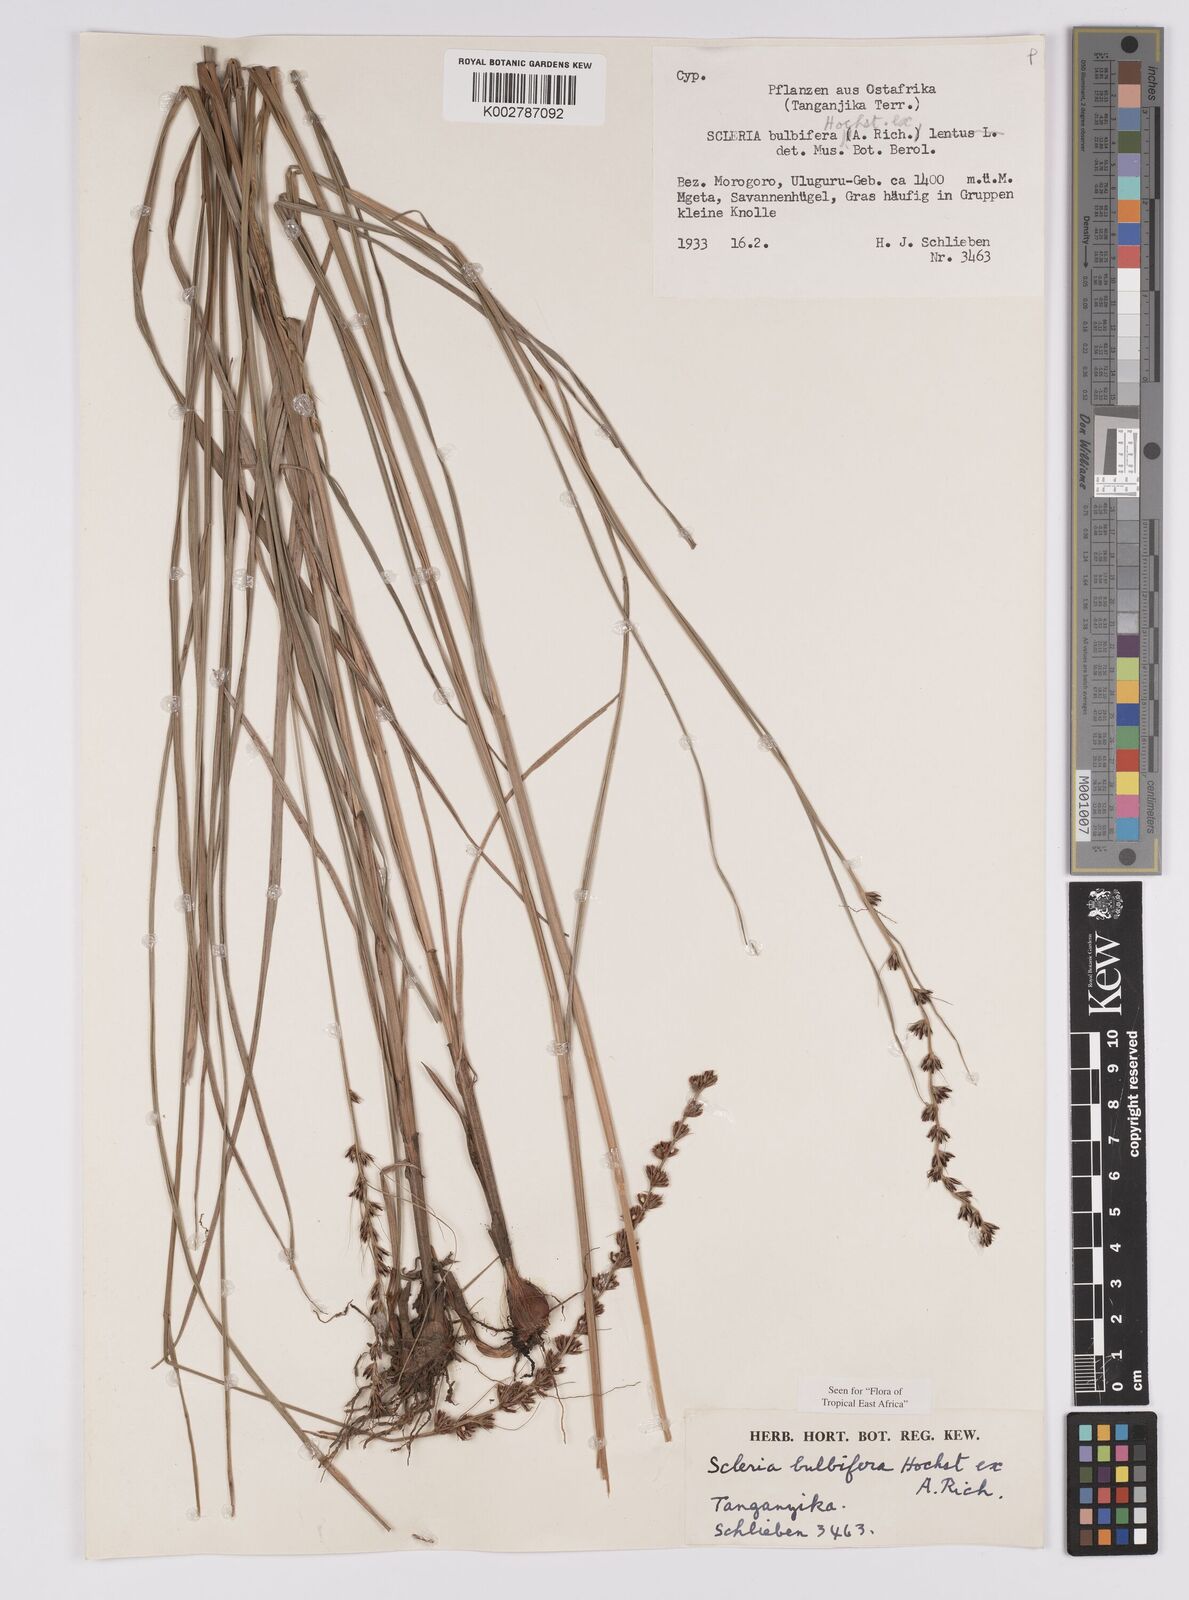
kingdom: Plantae
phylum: Tracheophyta
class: Liliopsida
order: Poales
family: Cyperaceae
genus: Scleria
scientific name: Scleria bulbifera
